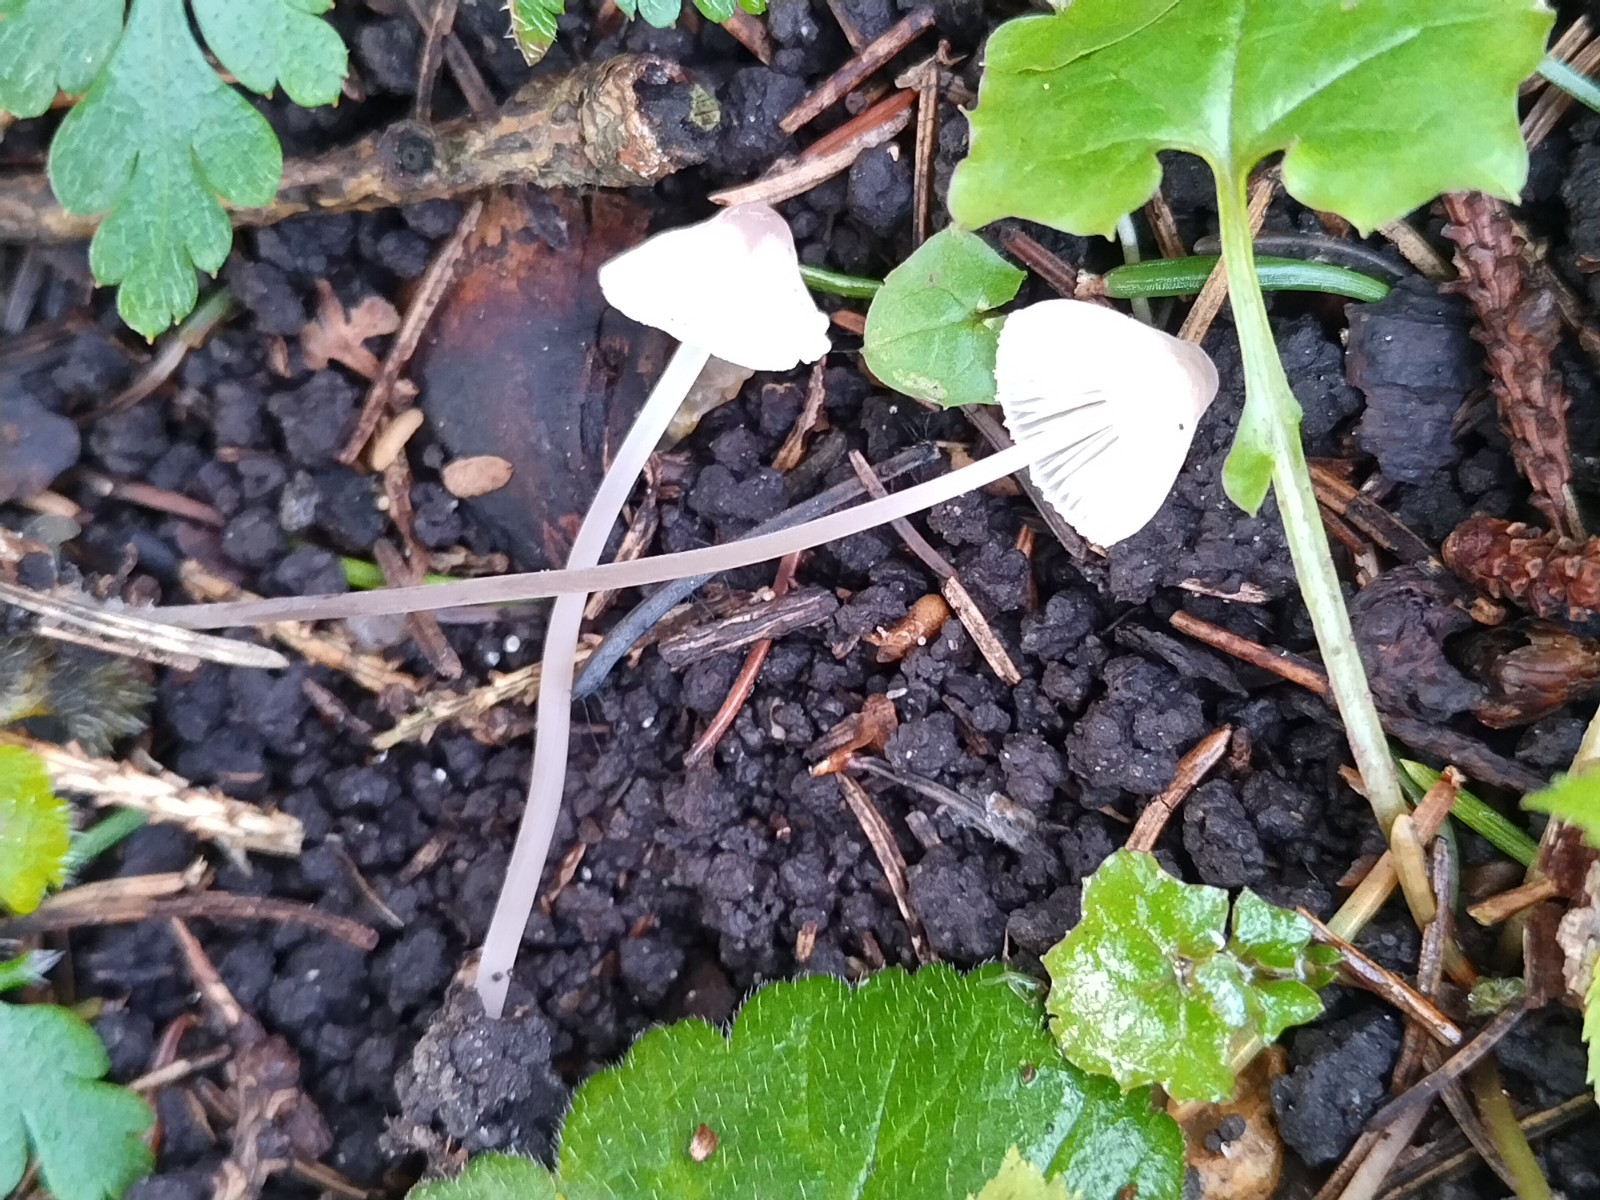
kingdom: Fungi
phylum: Basidiomycota
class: Agaricomycetes
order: Agaricales
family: Mycenaceae
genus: Mycena
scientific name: Mycena filopes
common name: jod-huesvamp
